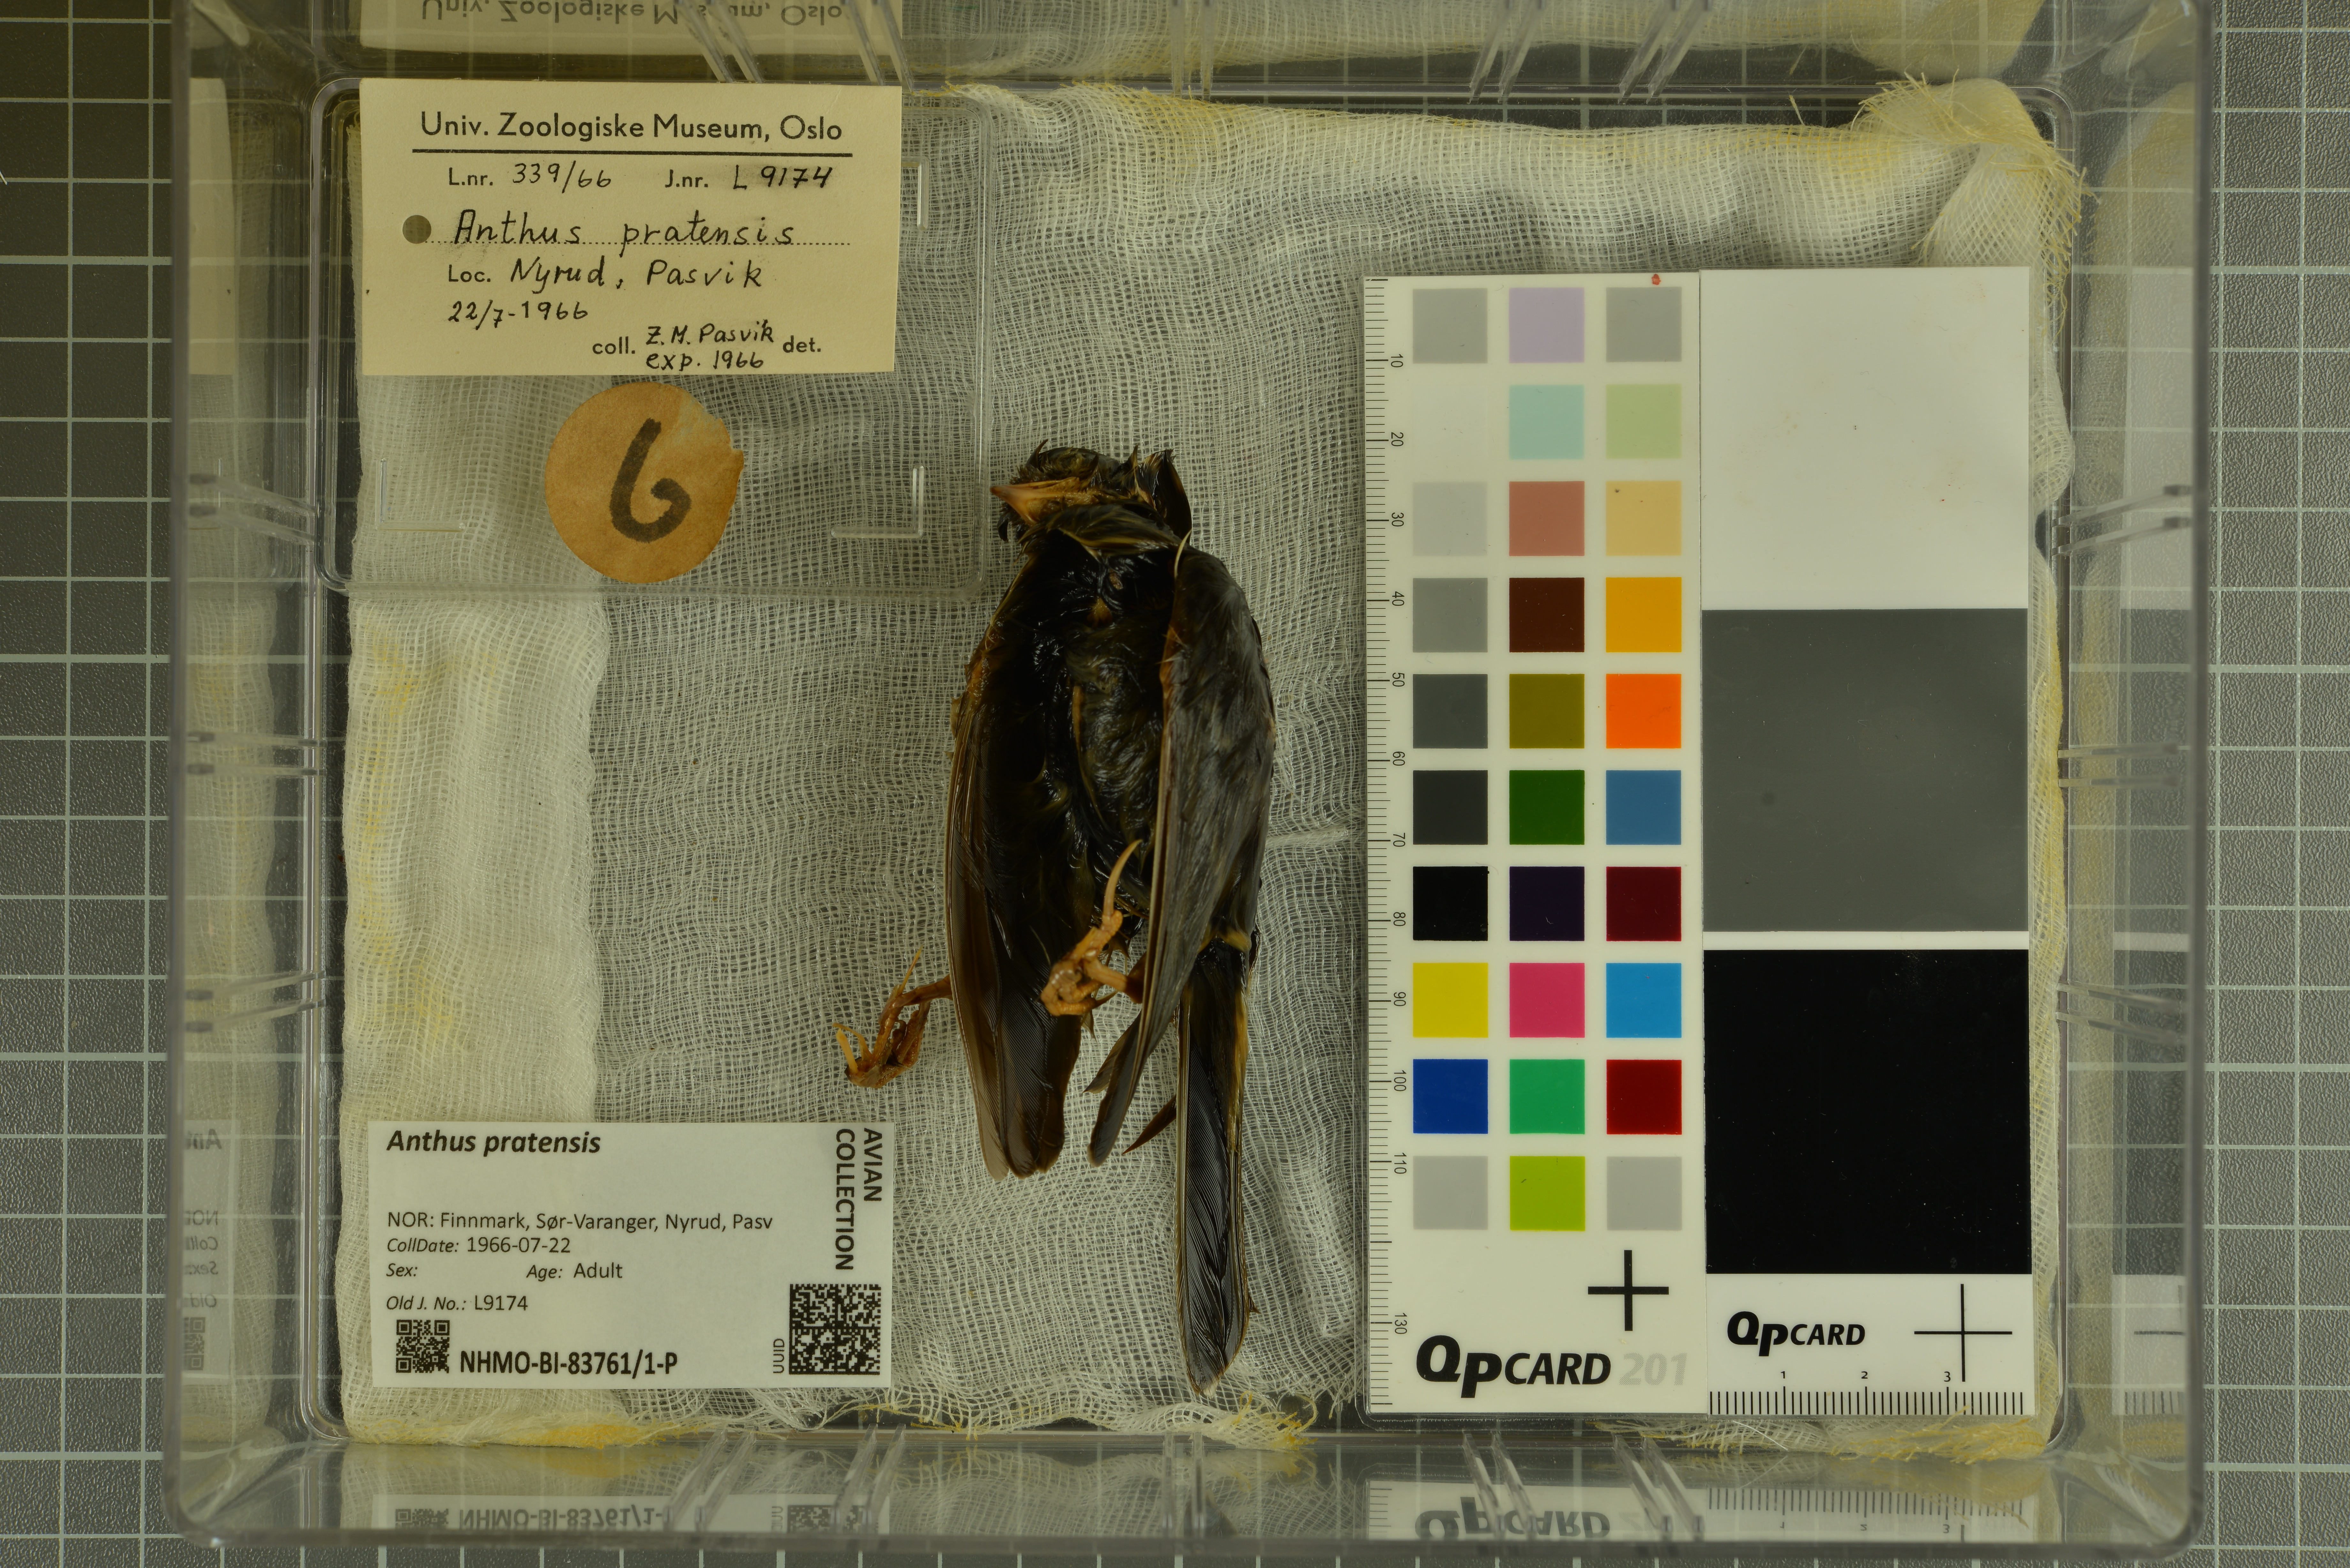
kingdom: Animalia
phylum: Chordata
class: Aves
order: Passeriformes
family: Motacillidae
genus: Anthus
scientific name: Anthus pratensis
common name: Meadow pipit
